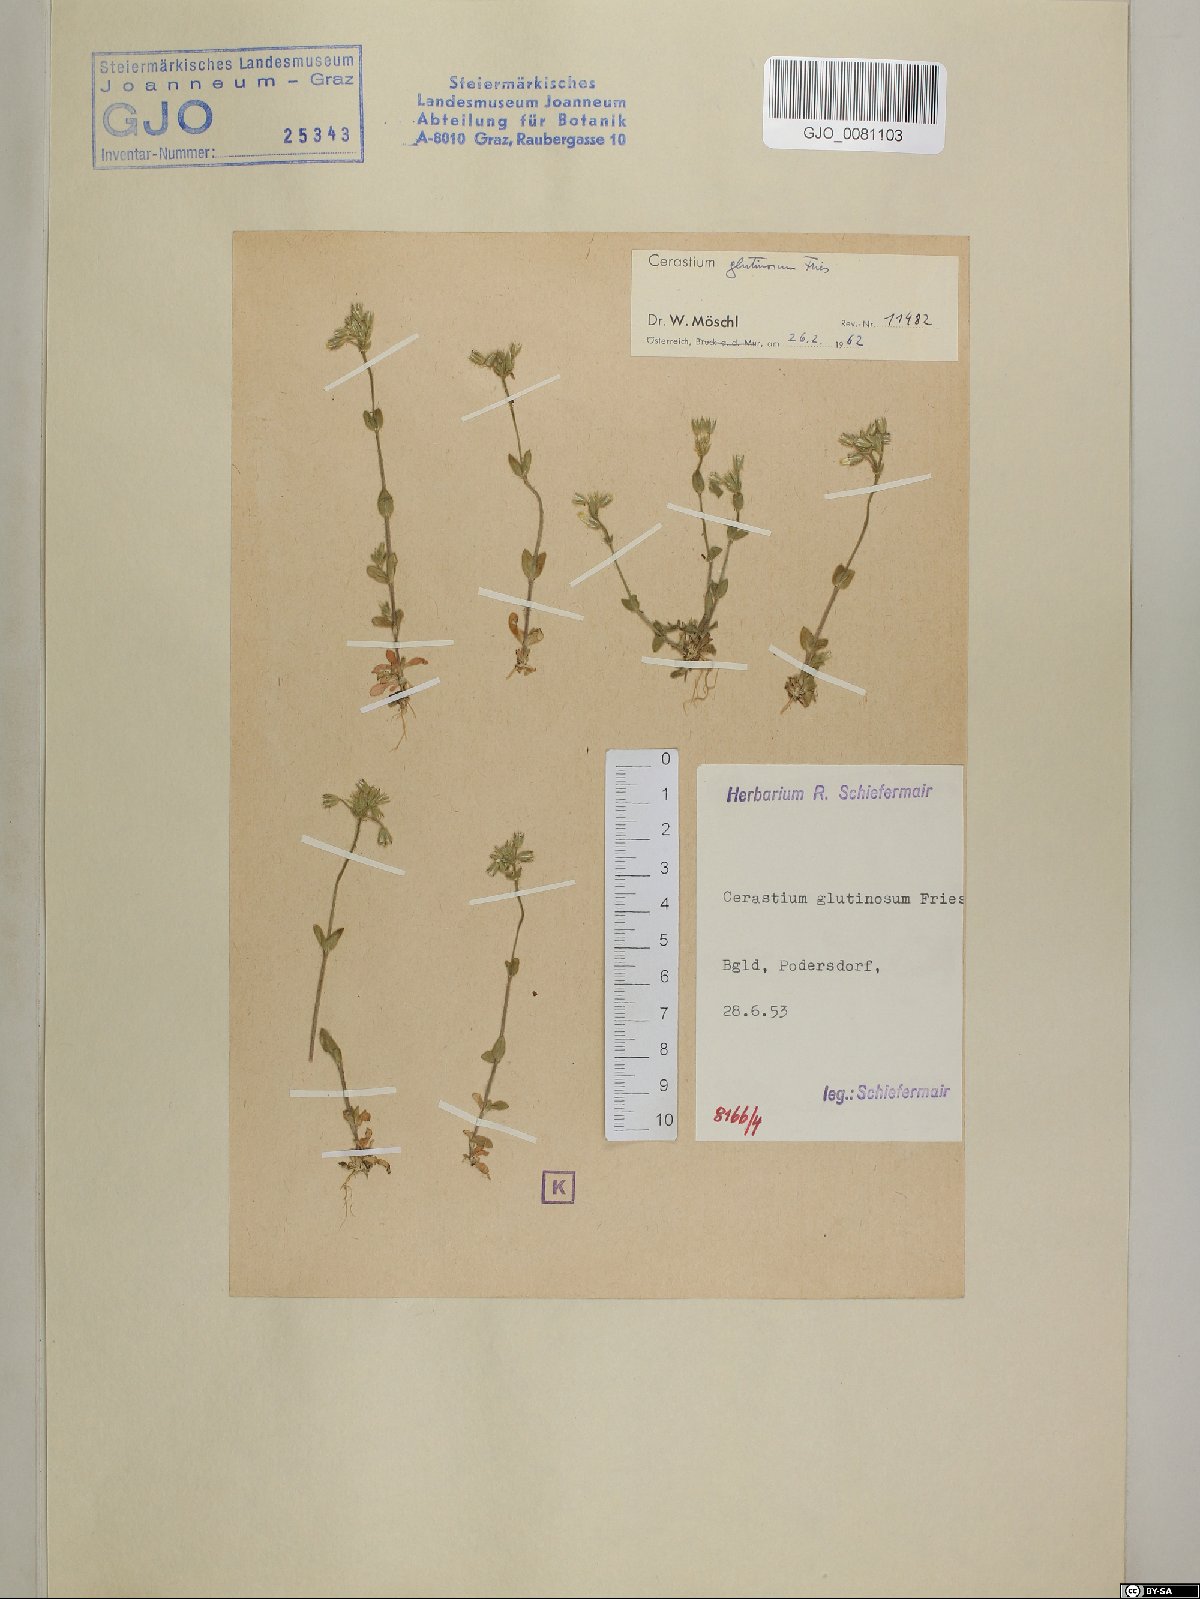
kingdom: Plantae
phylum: Tracheophyta
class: Magnoliopsida
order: Caryophyllales
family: Caryophyllaceae
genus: Cerastium
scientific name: Cerastium glutinosum
